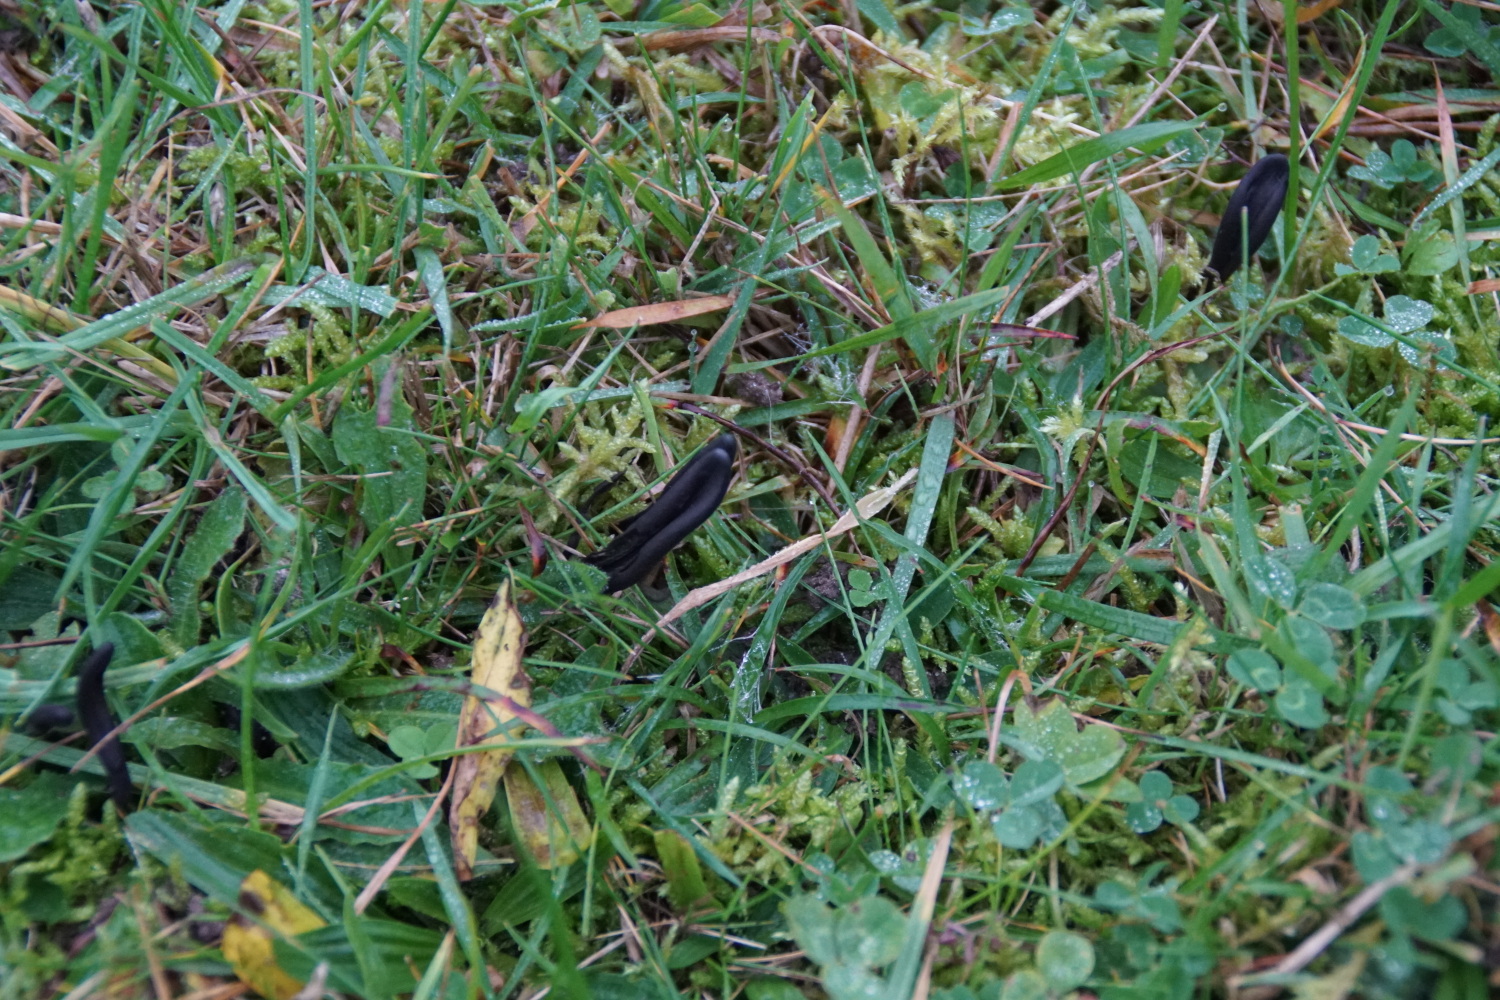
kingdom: Fungi
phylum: Ascomycota
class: Geoglossomycetes
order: Geoglossales
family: Geoglossaceae
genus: Geoglossum
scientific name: Geoglossum fallax
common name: småskællet jordtunge
